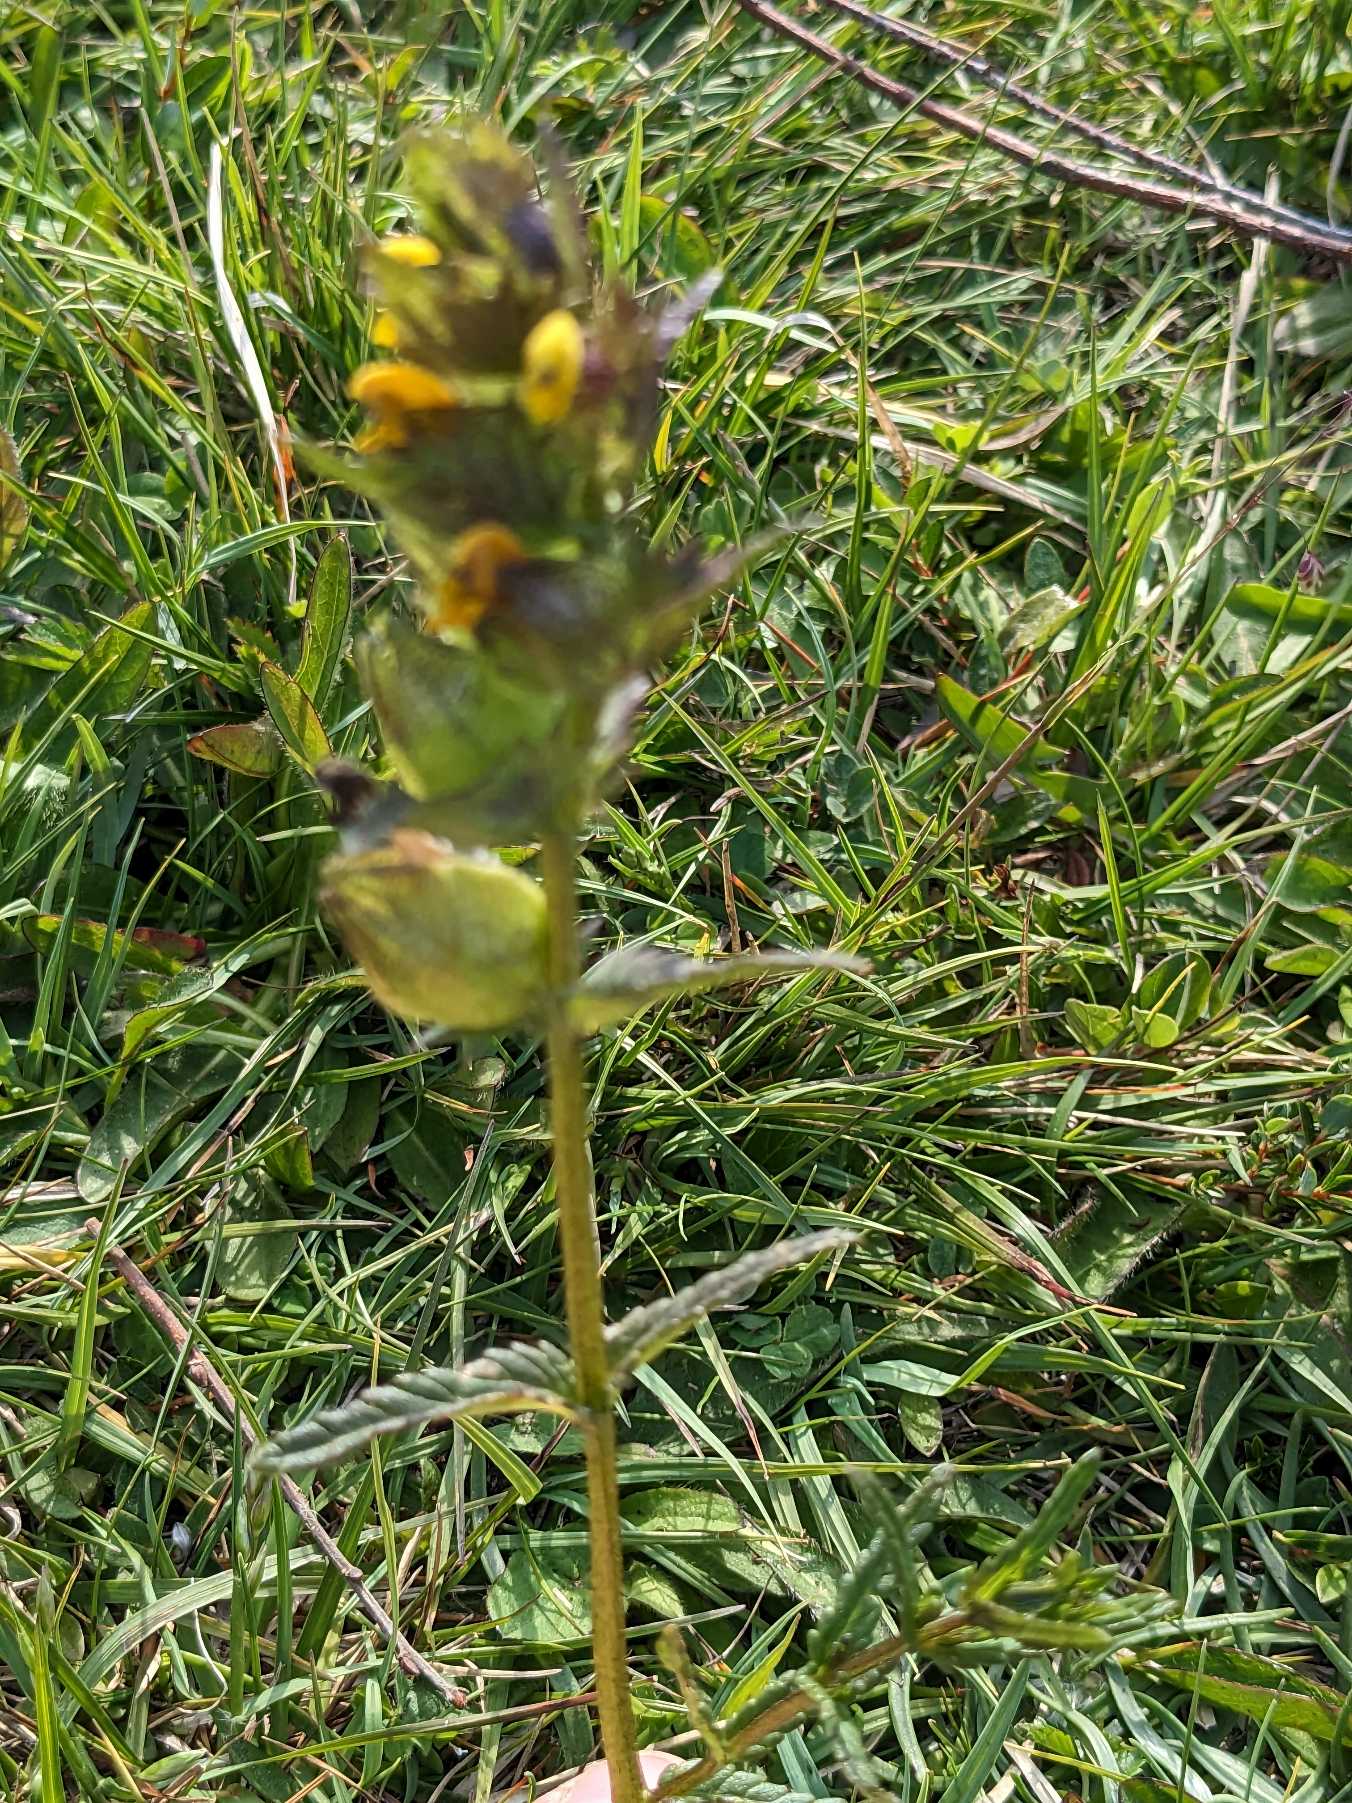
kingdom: Plantae
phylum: Tracheophyta
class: Magnoliopsida
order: Lamiales
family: Orobanchaceae
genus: Rhinanthus
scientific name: Rhinanthus minor
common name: Liden skjaller
